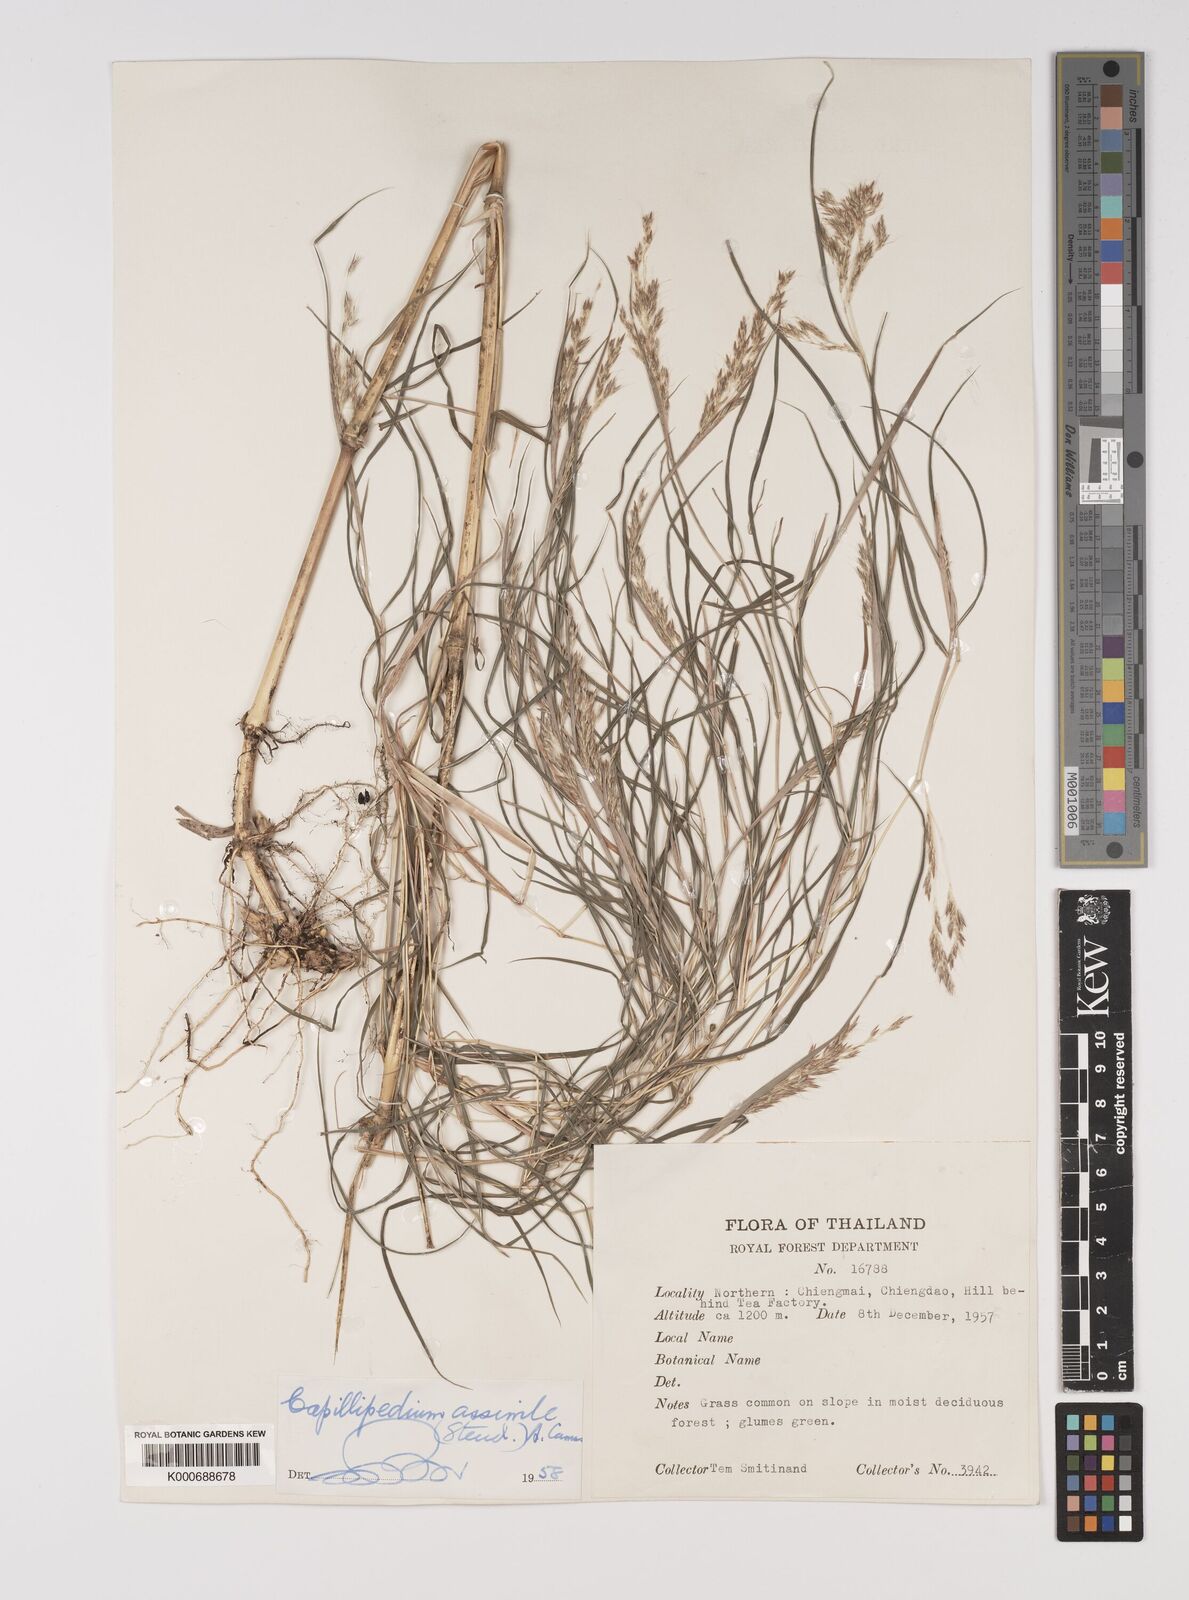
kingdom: Plantae
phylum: Tracheophyta
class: Liliopsida
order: Poales
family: Poaceae
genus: Capillipedium
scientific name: Capillipedium assimile
